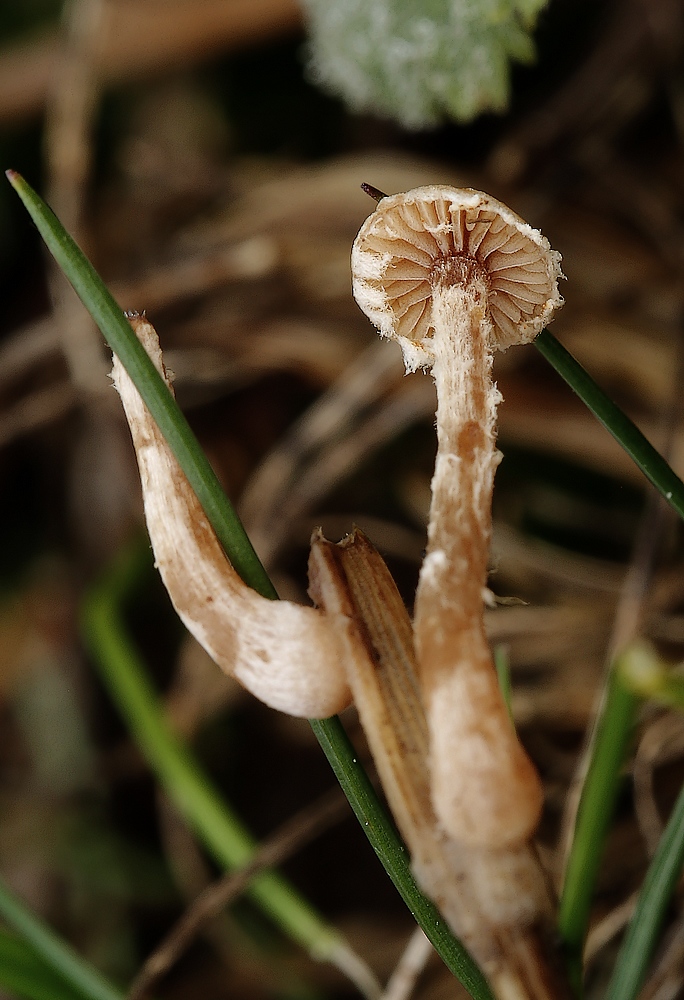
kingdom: Fungi
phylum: Basidiomycota
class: Agaricomycetes
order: Agaricales
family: Tubariaceae
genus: Tubaria
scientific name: Tubaria
